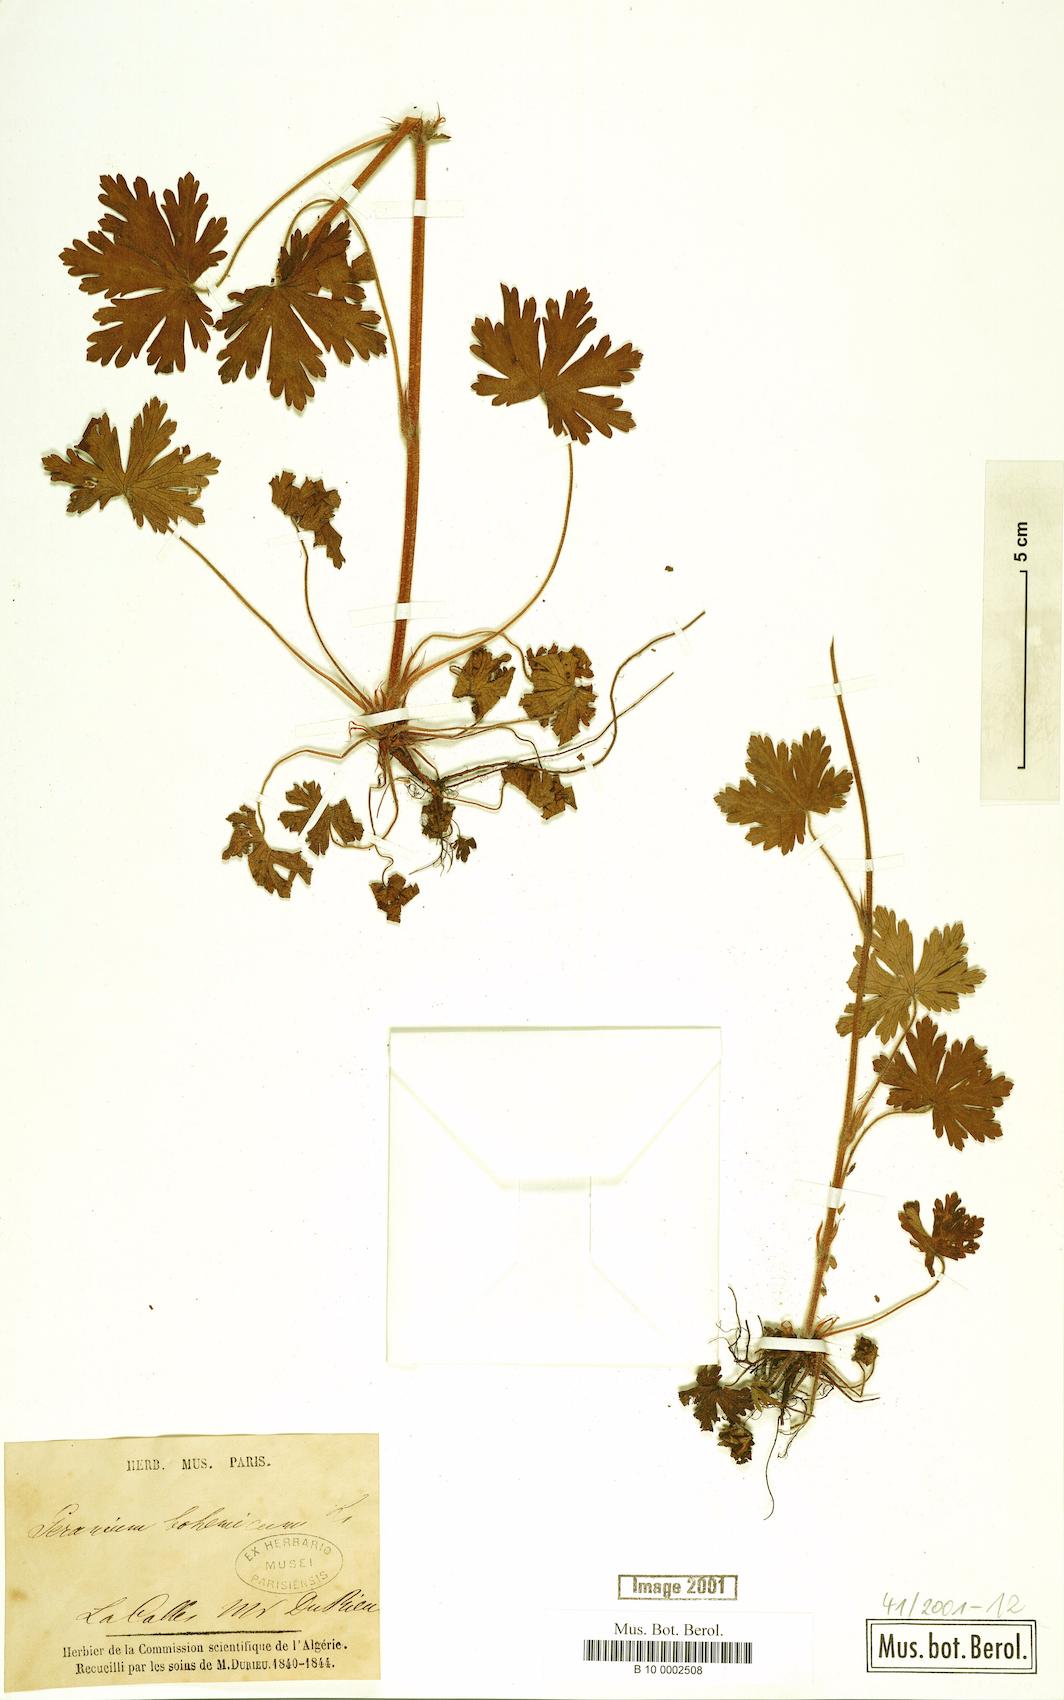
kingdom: Plantae
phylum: Tracheophyta
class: Magnoliopsida
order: Geraniales
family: Geraniaceae
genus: Geranium
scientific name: Geranium bohemicum
